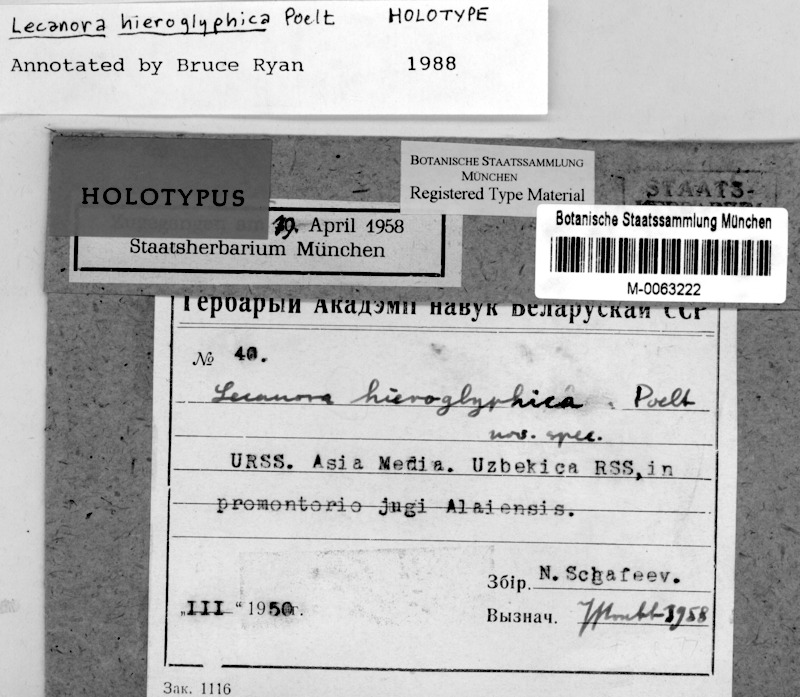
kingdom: Fungi
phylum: Ascomycota
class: Lecanoromycetes
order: Lecanorales
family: Lecanoraceae
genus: Protoparmeliopsis
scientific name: Protoparmeliopsis hieroglyphica
